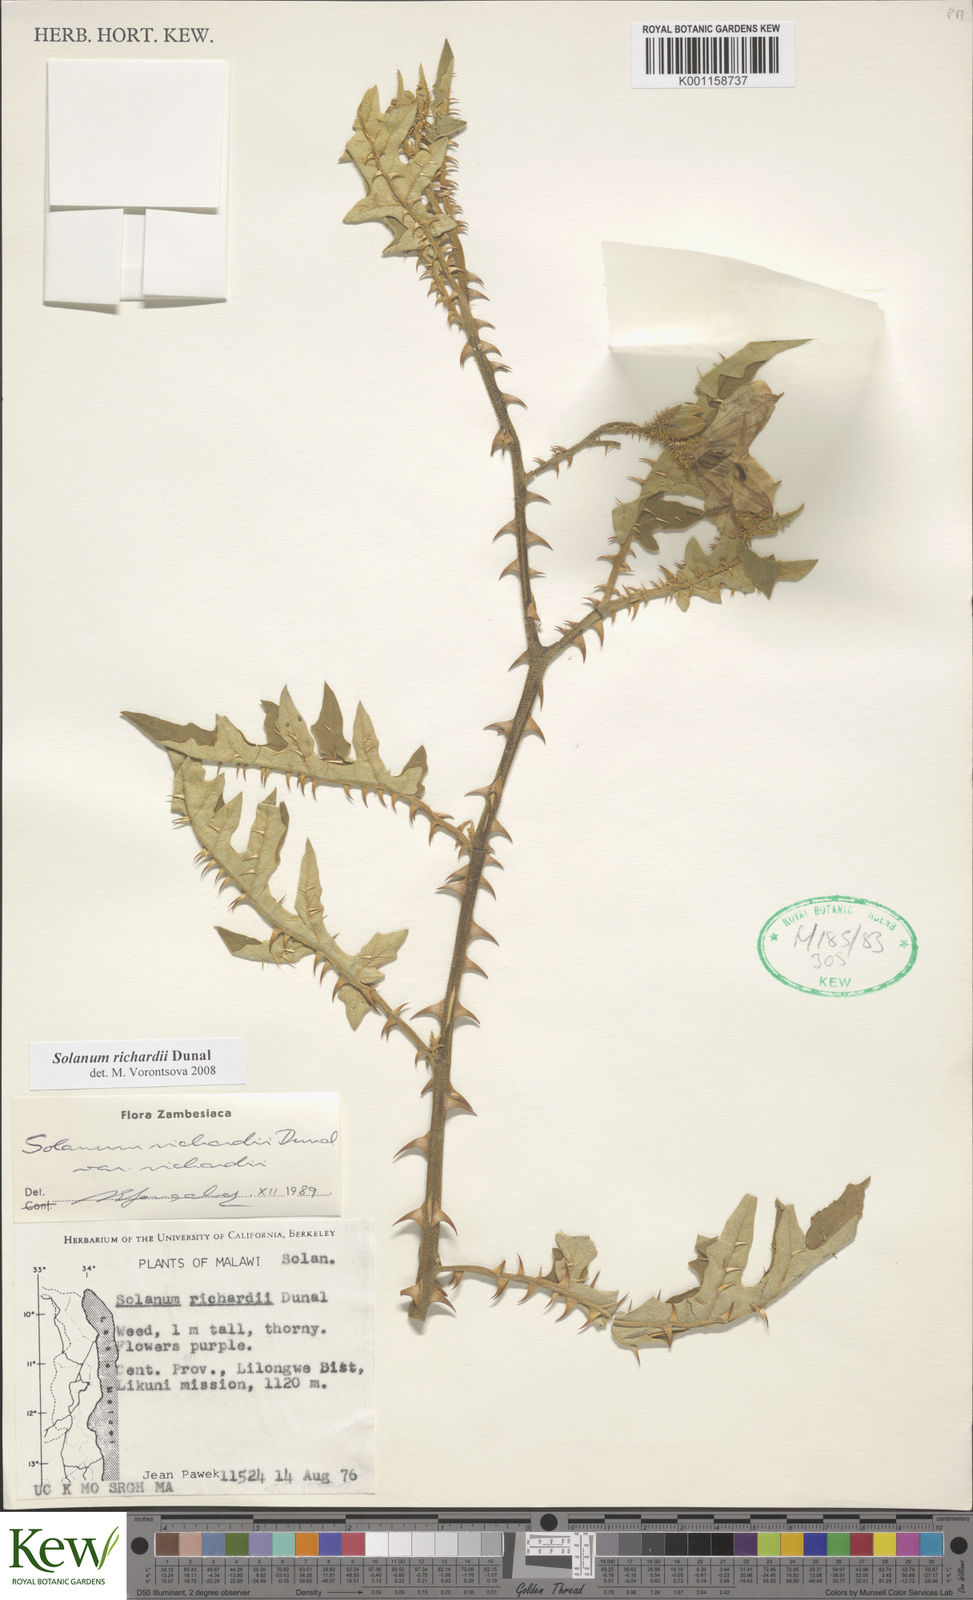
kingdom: Plantae
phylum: Tracheophyta
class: Magnoliopsida
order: Solanales
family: Solanaceae
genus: Solanum
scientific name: Solanum richardii
